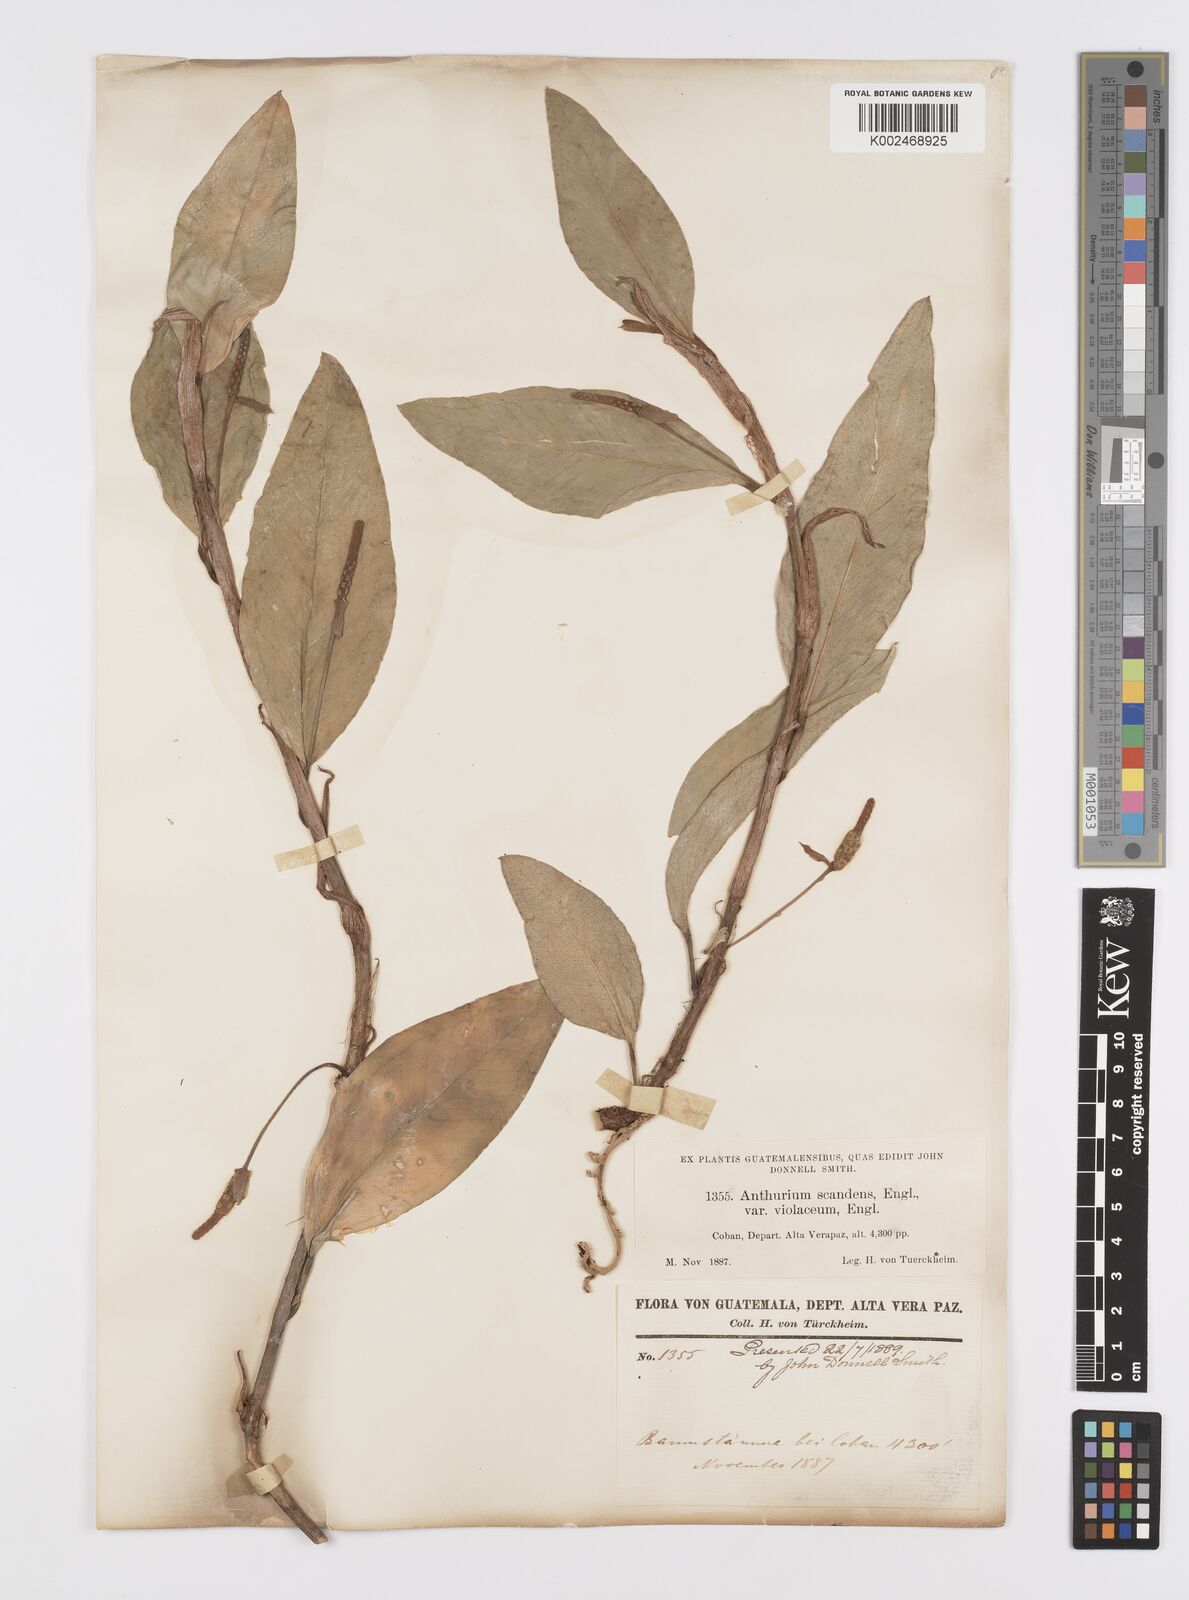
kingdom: Plantae
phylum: Tracheophyta
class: Liliopsida
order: Alismatales
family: Araceae
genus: Anthurium
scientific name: Anthurium scandens
